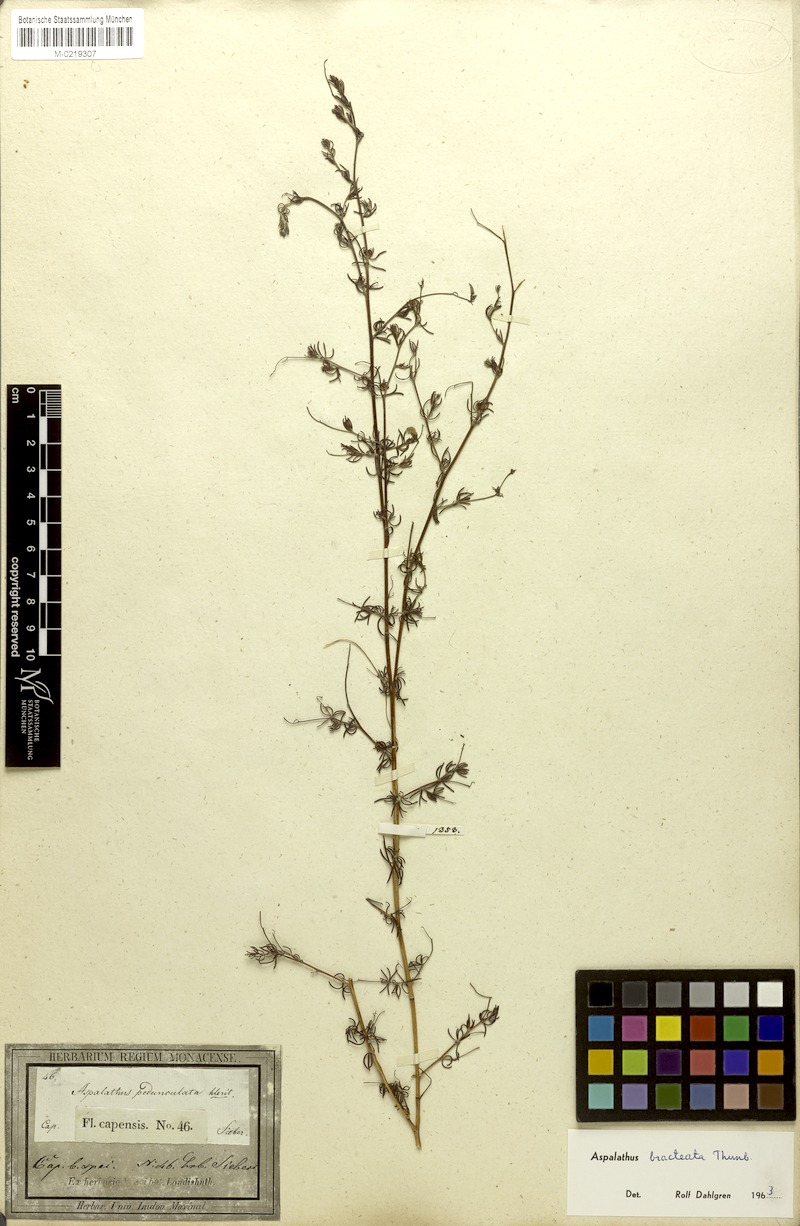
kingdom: Plantae
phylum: Tracheophyta
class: Magnoliopsida
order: Fabales
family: Fabaceae
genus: Aspalathus
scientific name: Aspalathus bracteata
